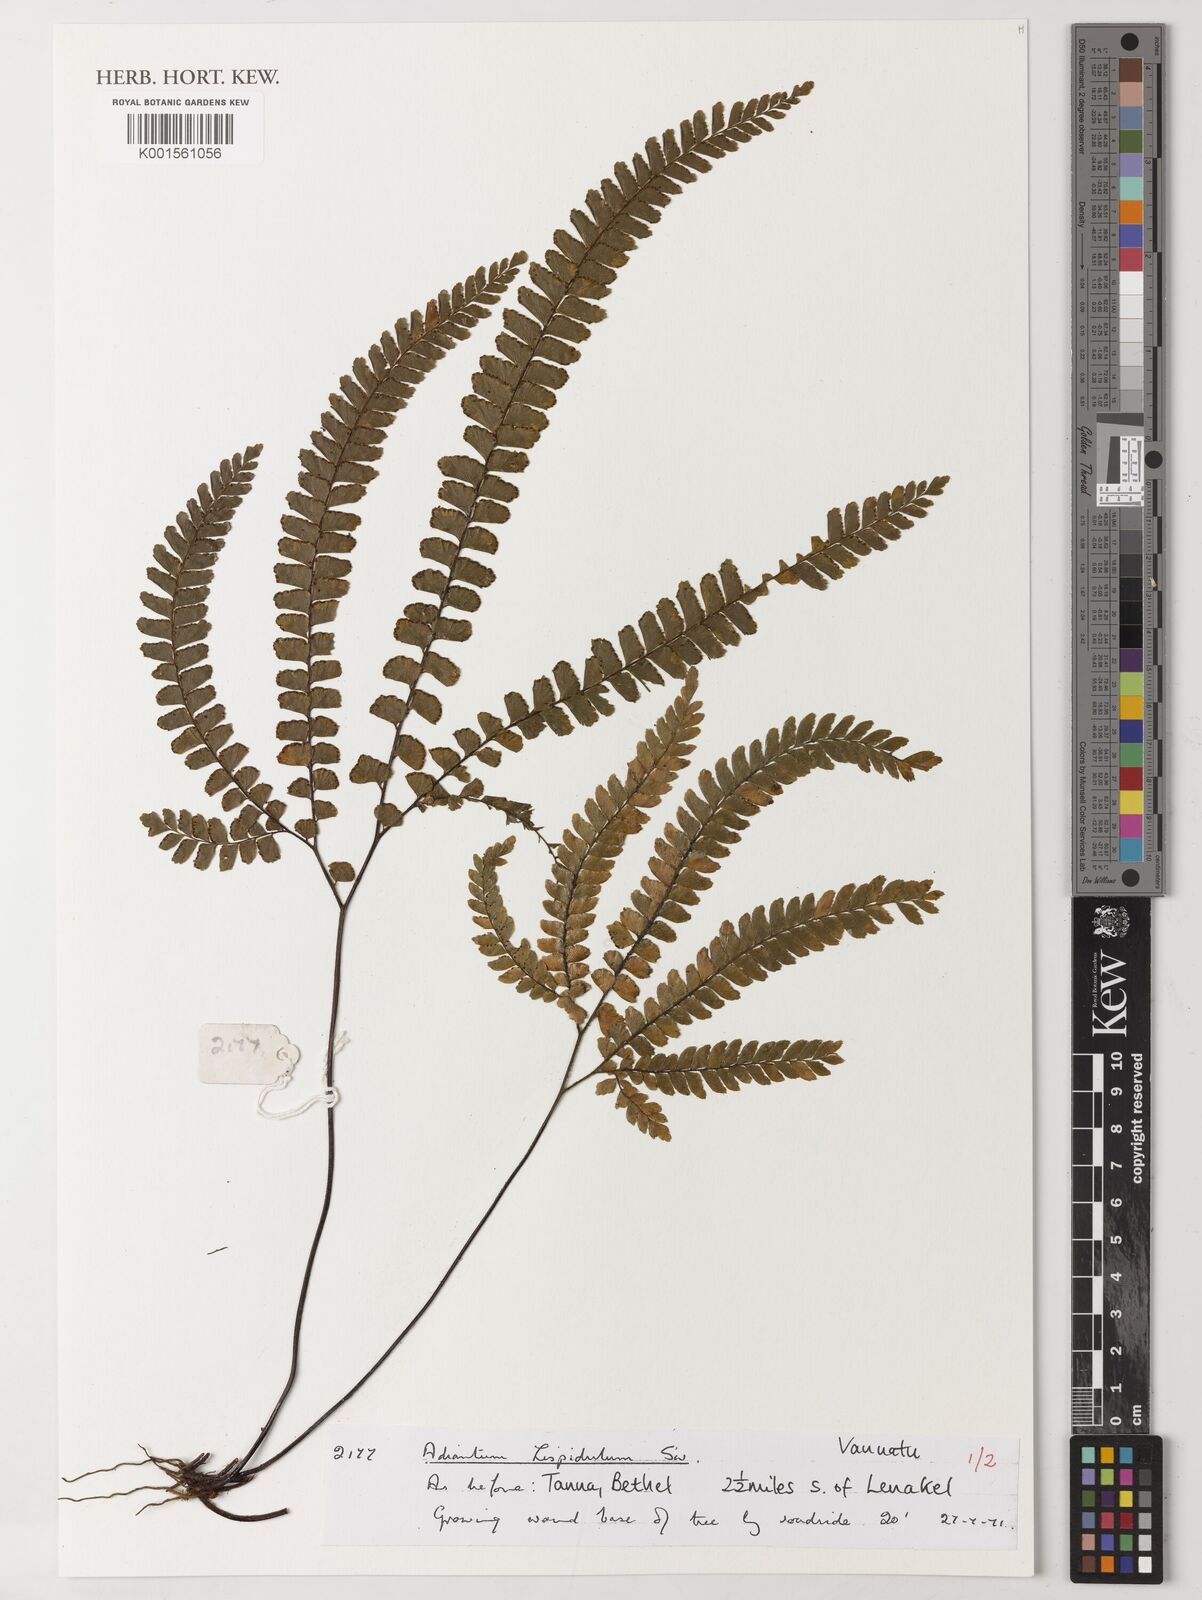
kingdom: Plantae
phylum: Tracheophyta
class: Polypodiopsida
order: Polypodiales
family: Pteridaceae
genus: Adiantum
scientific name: Adiantum hispidulum
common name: Rough maidenhair
